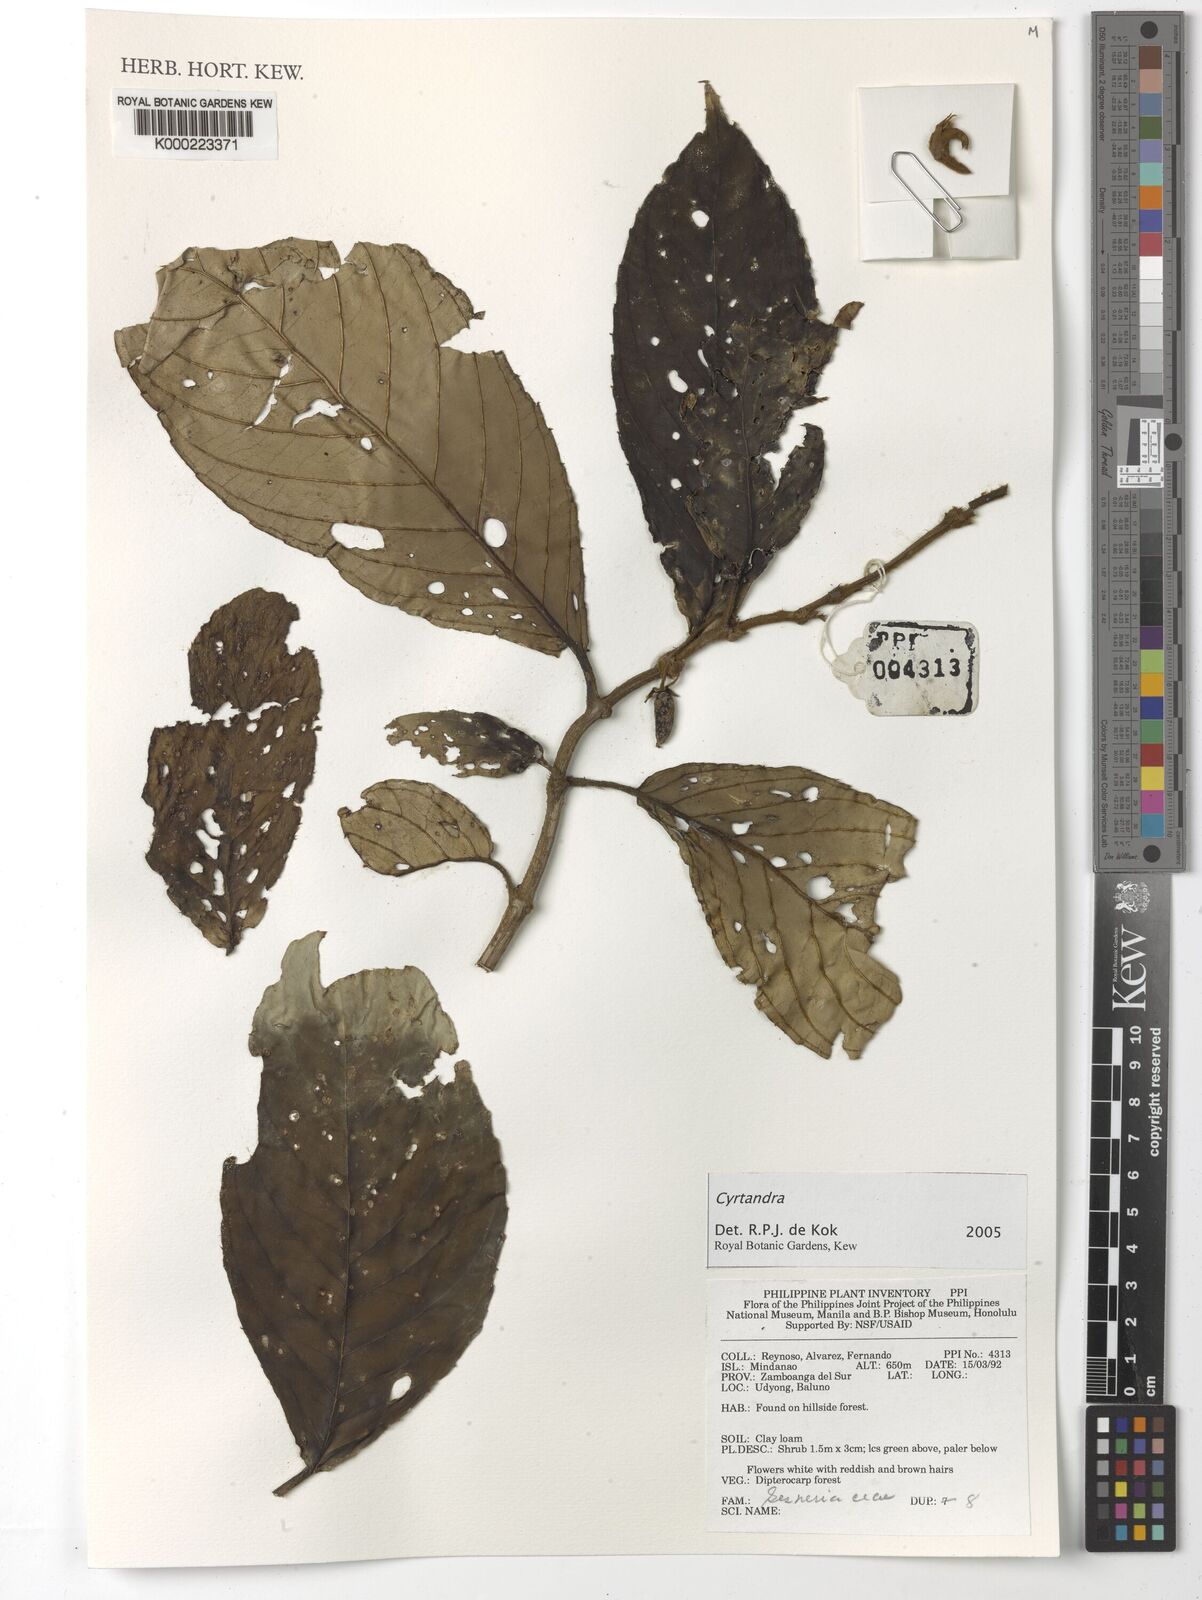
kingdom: Plantae
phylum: Tracheophyta
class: Magnoliopsida
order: Lamiales
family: Gesneriaceae
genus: Cyrtandra
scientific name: Cyrtandra
